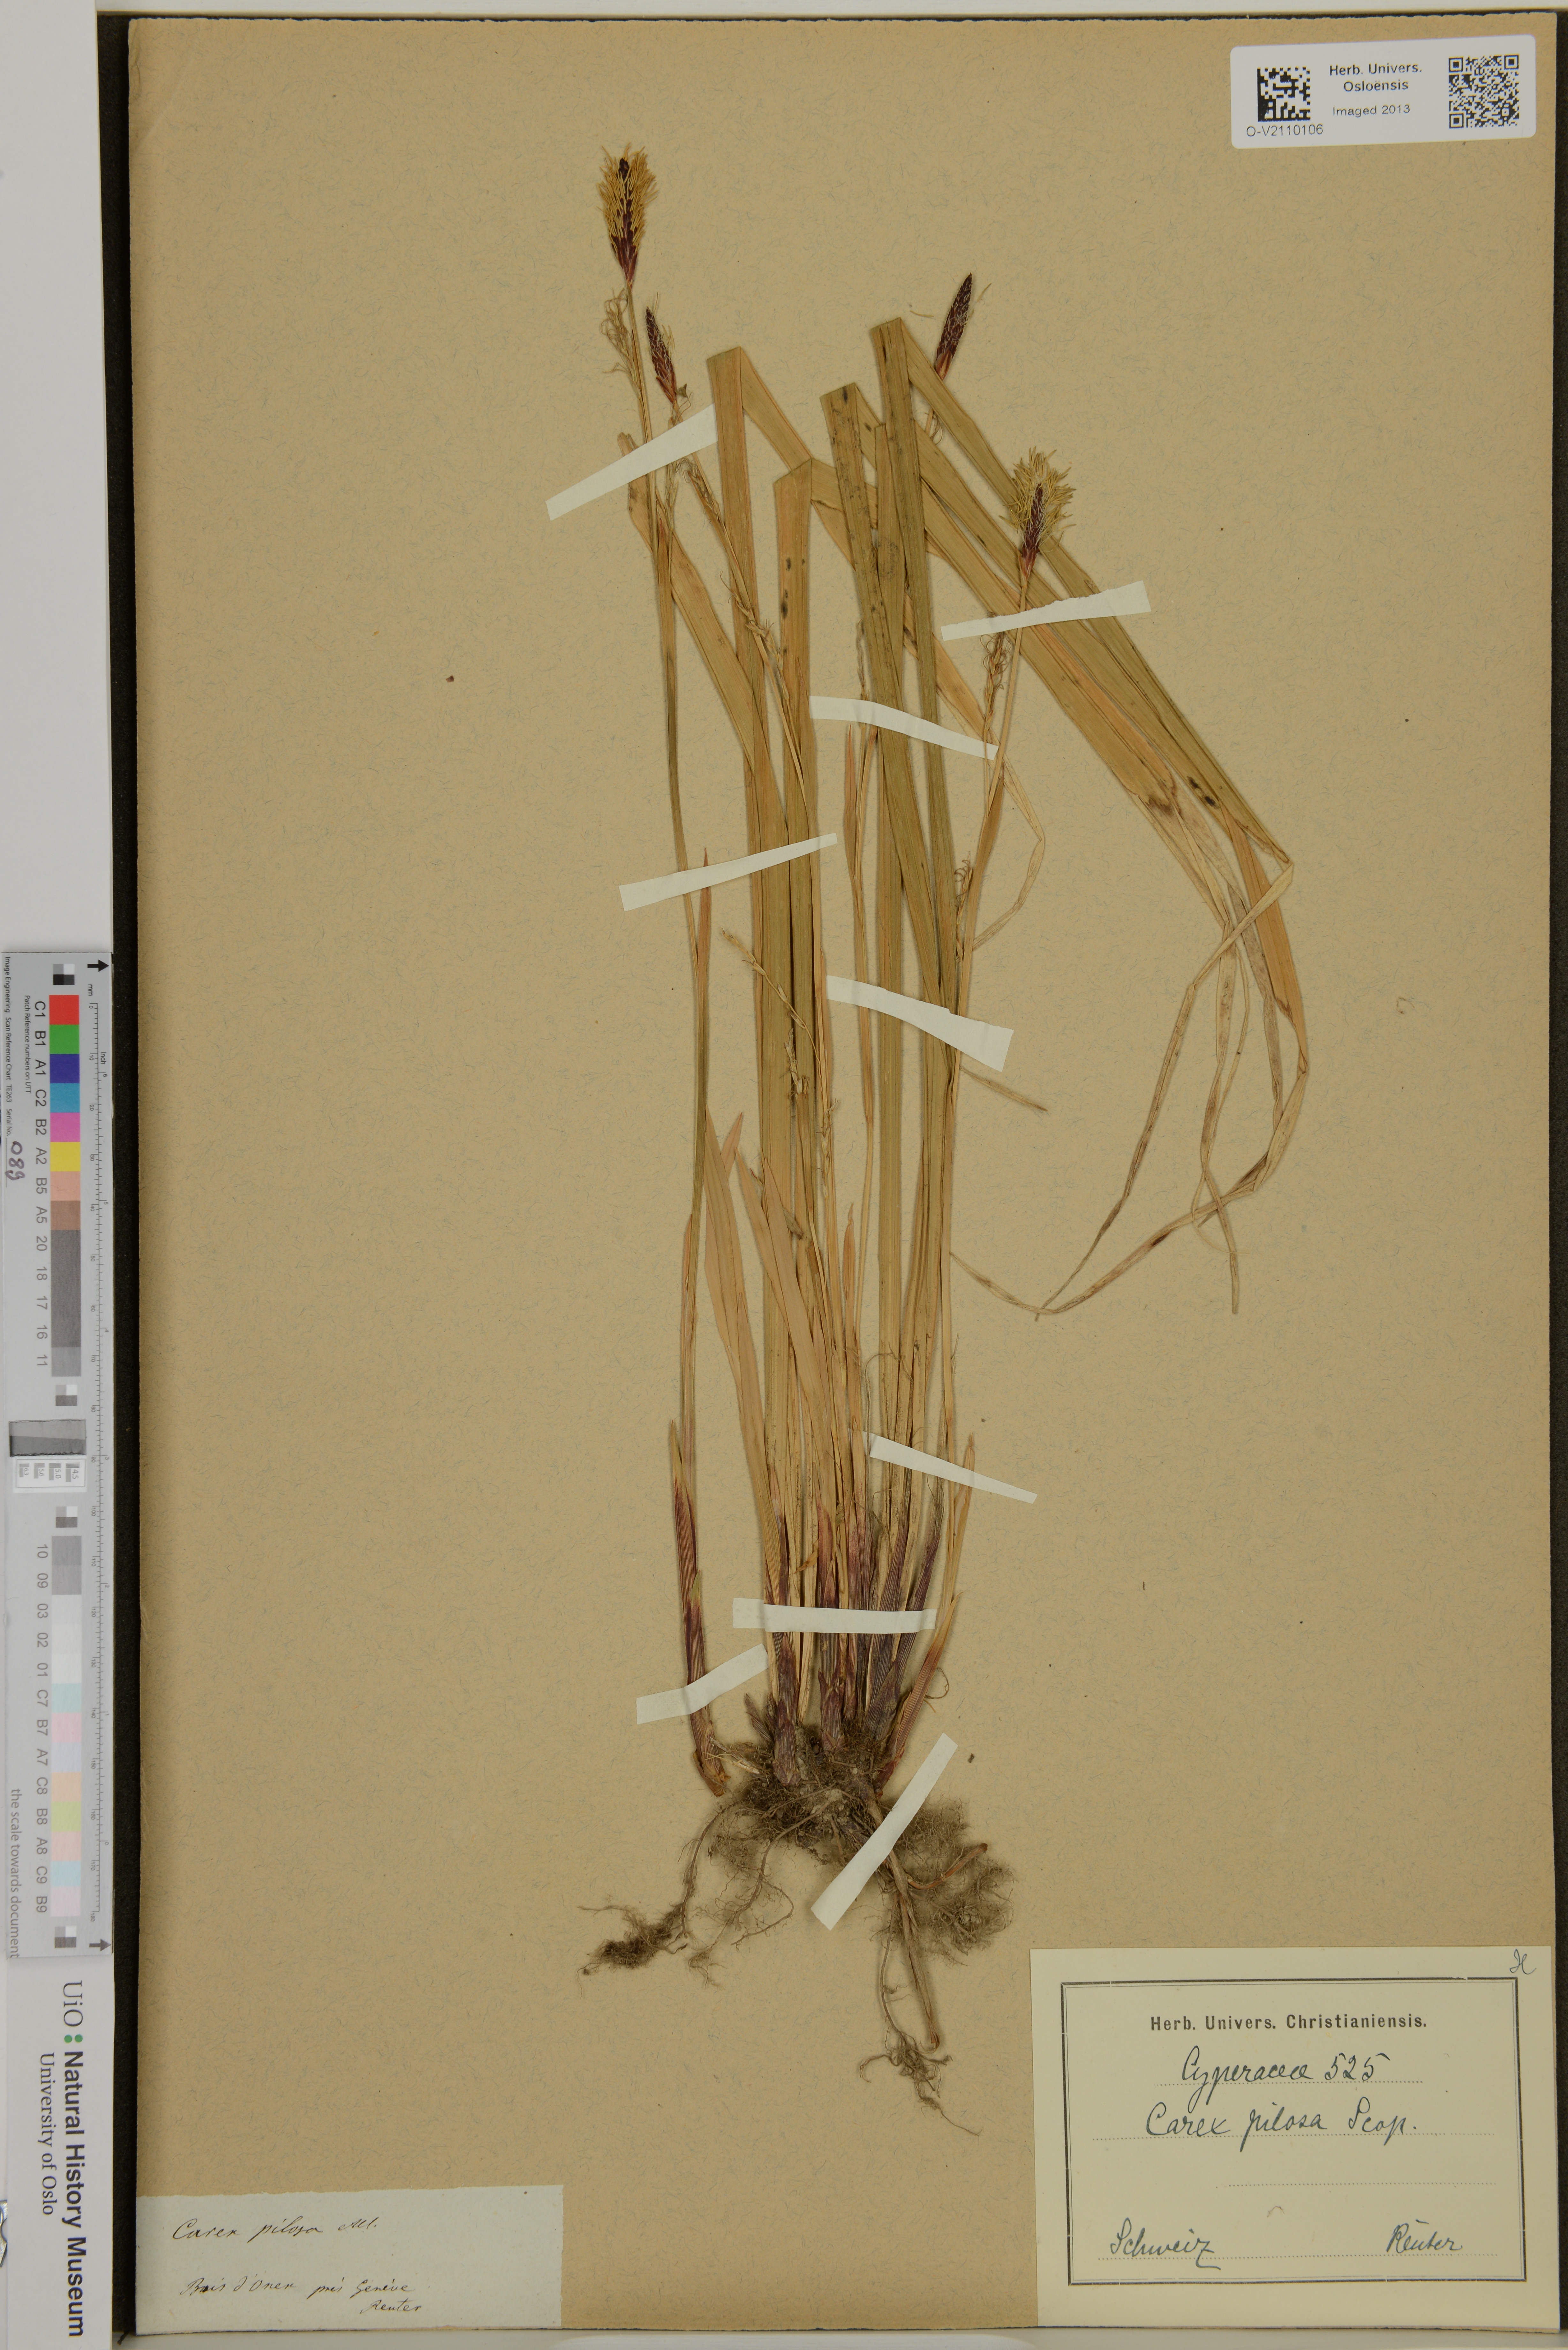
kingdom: Plantae
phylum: Tracheophyta
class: Liliopsida
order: Poales
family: Cyperaceae
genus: Carex
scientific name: Carex pilosa
